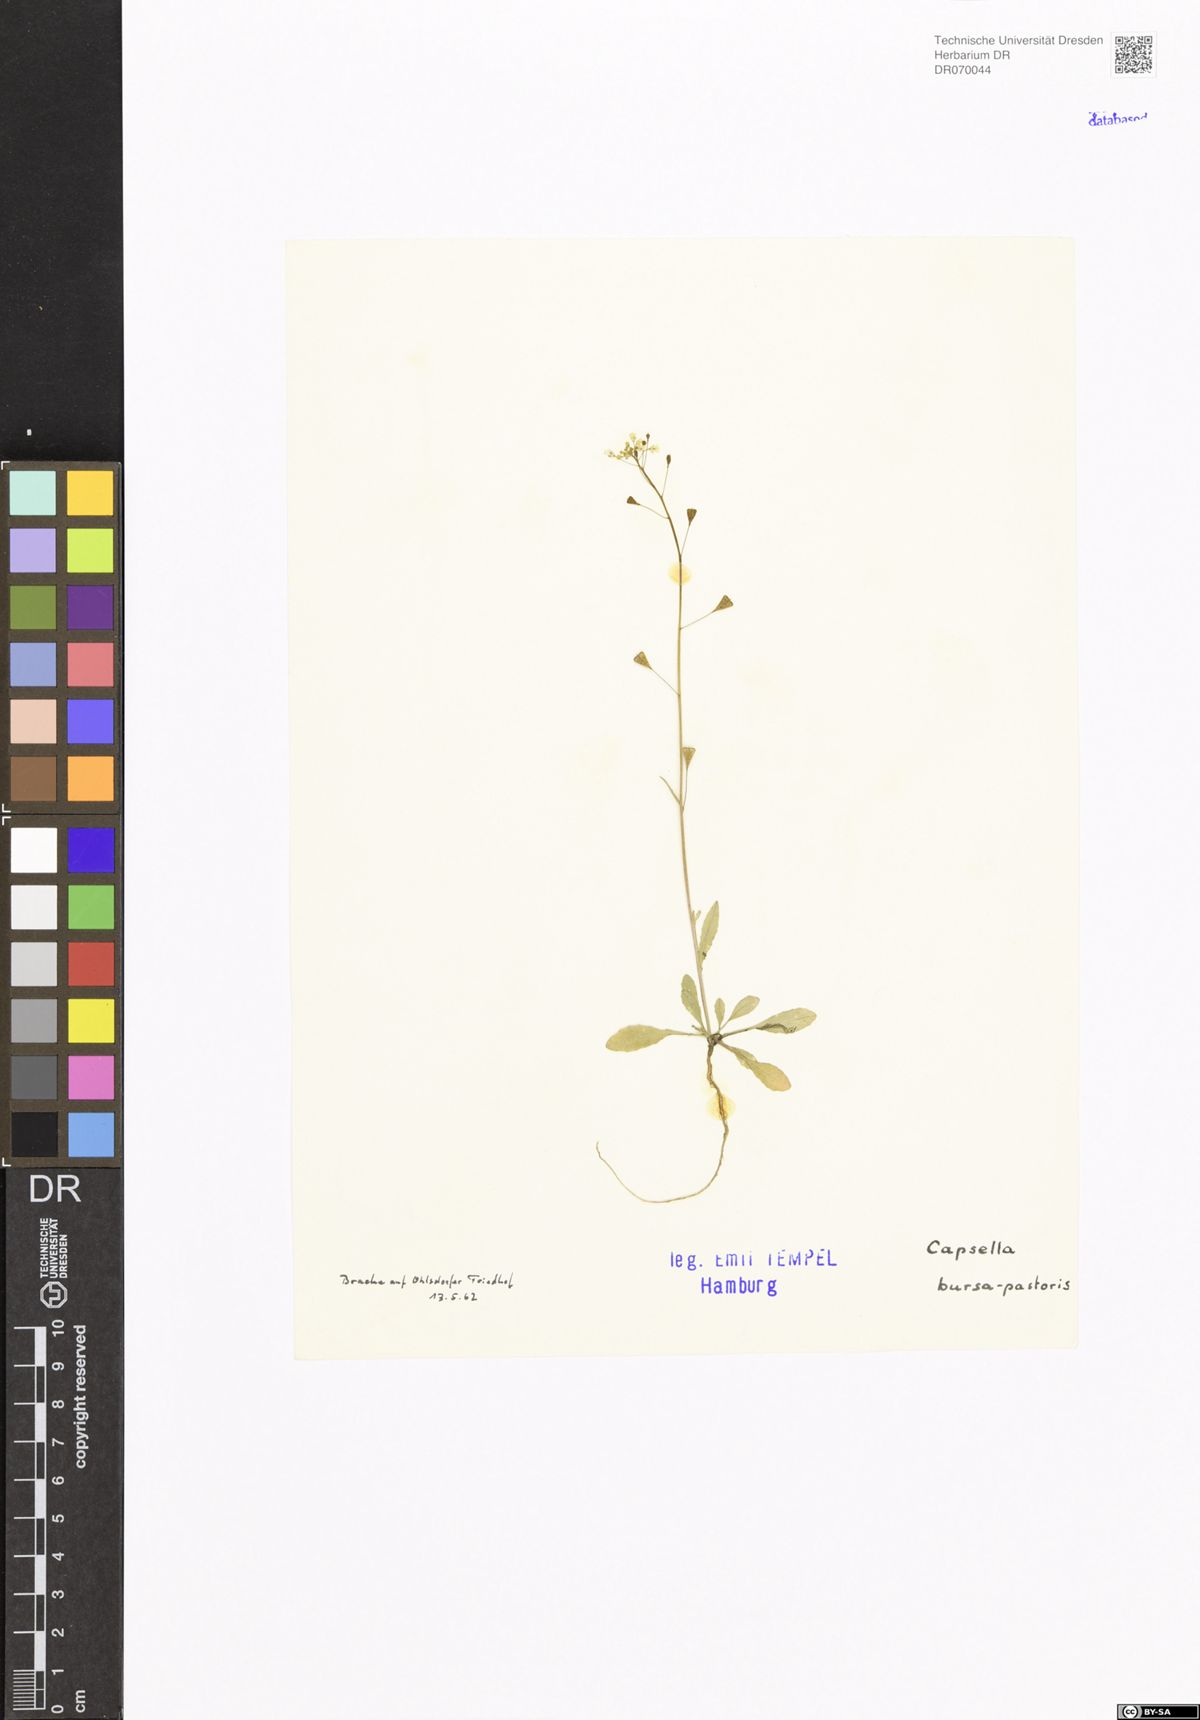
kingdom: Plantae
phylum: Tracheophyta
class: Magnoliopsida
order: Brassicales
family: Brassicaceae
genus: Capsella
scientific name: Capsella bursa-pastoris
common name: Shepherd's purse
